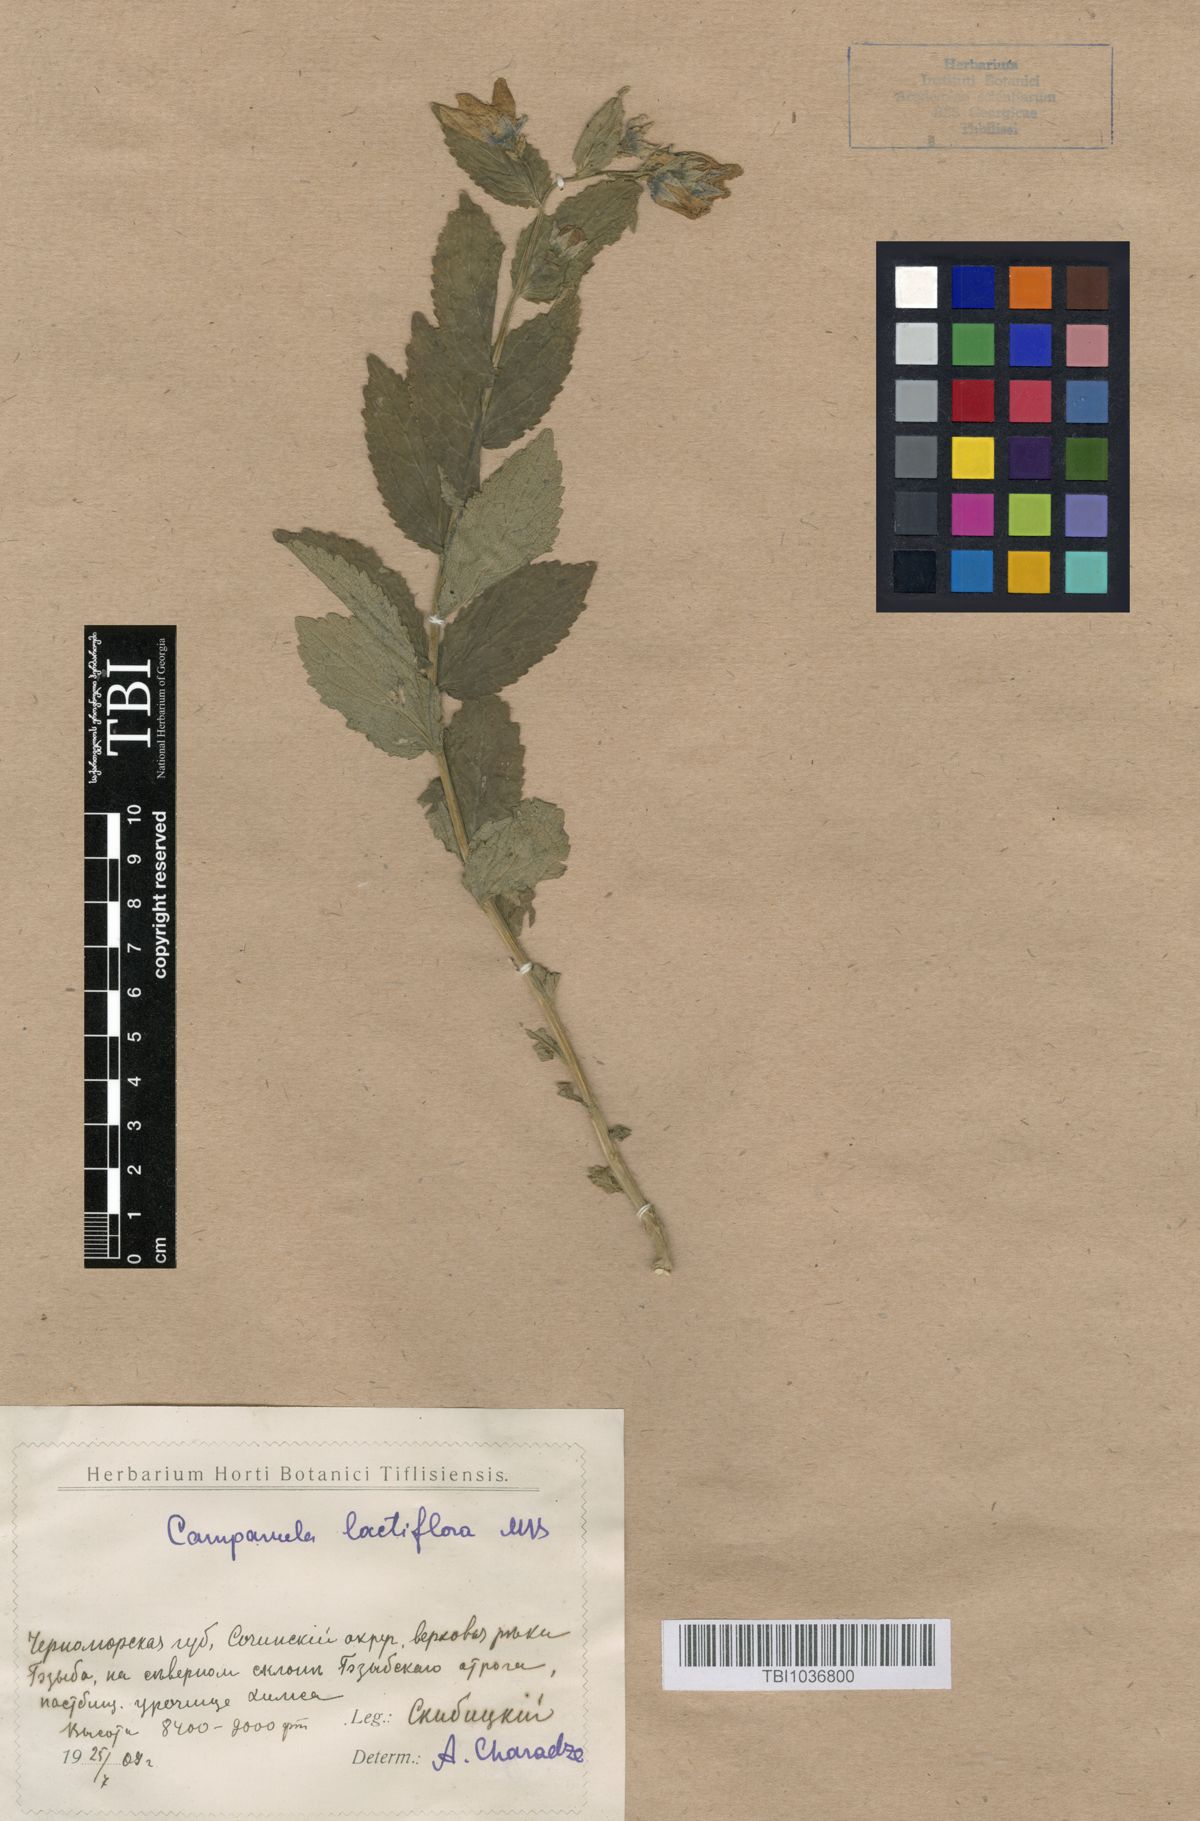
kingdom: Plantae
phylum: Tracheophyta
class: Magnoliopsida
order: Asterales
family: Campanulaceae
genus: Campanula
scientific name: Campanula lactiflora
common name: Milky bellflower
